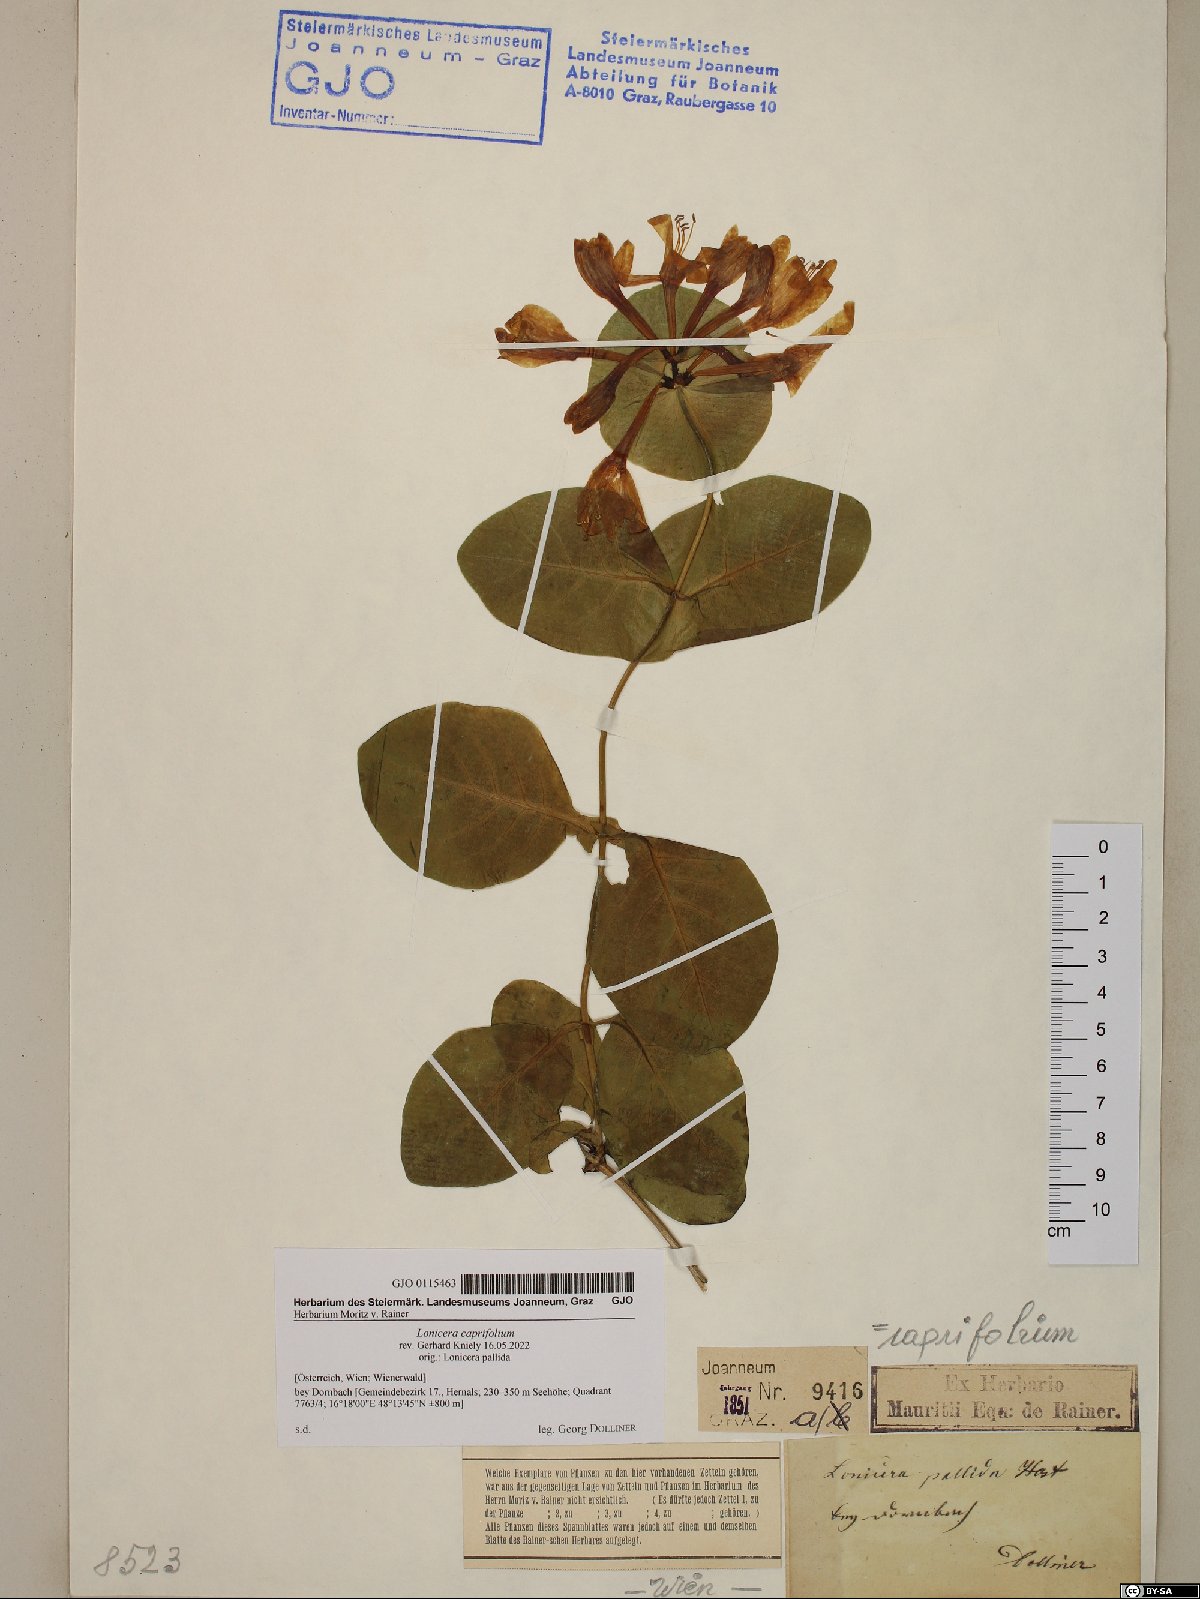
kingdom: Plantae
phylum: Tracheophyta
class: Magnoliopsida
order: Dipsacales
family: Caprifoliaceae
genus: Lonicera
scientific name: Lonicera caprifolium
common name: Perfoliate honeysuckle
